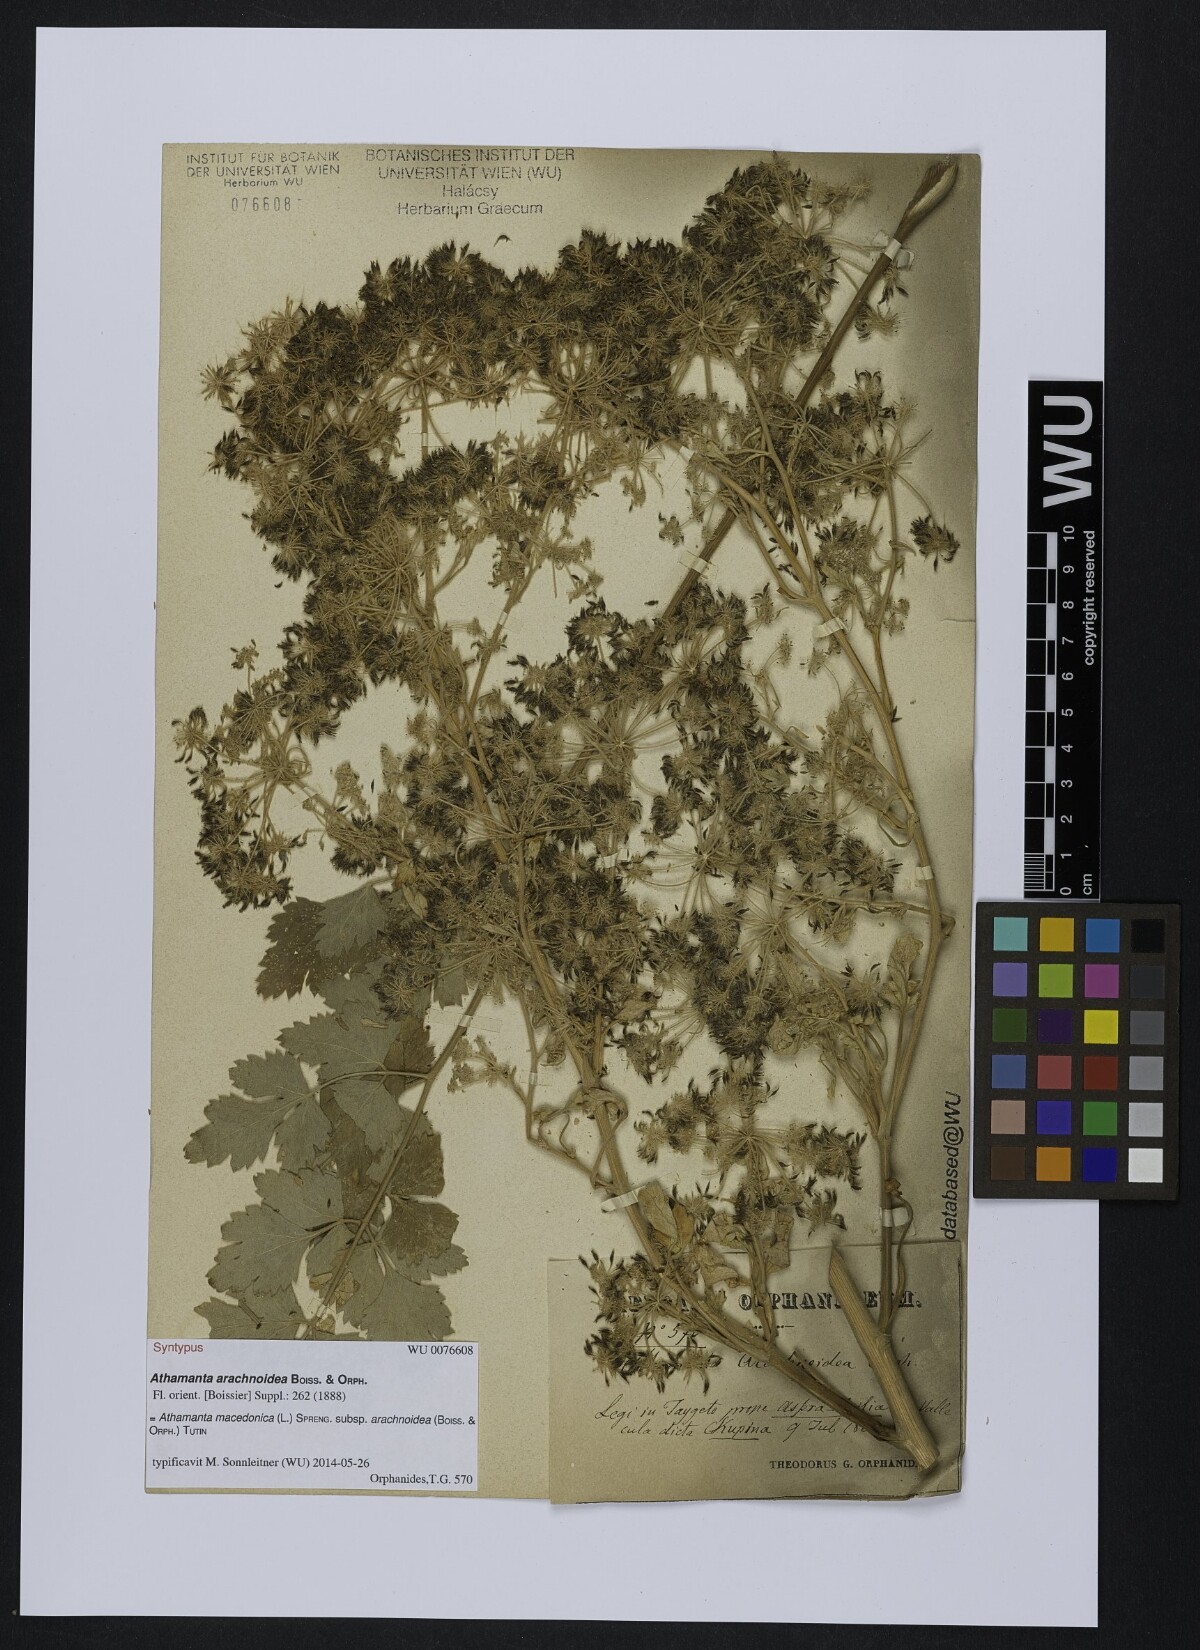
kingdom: Plantae
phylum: Tracheophyta
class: Magnoliopsida
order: Apiales
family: Apiaceae
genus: Bubon
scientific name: Bubon arachnoideum
